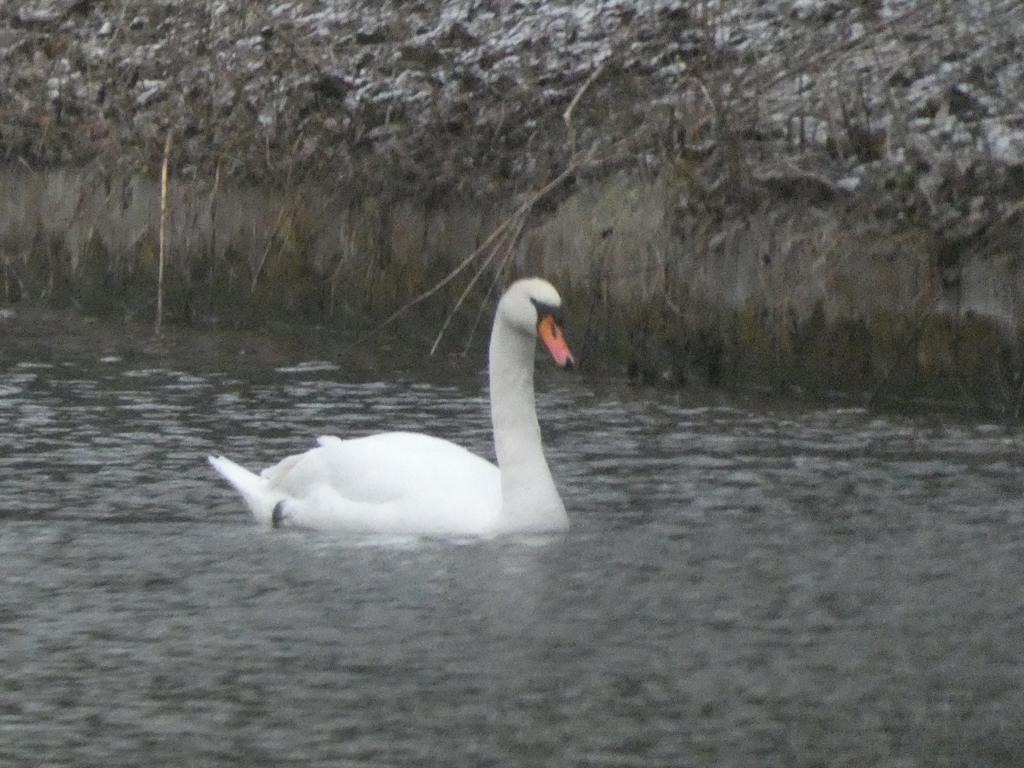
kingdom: Animalia
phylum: Chordata
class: Aves
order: Anseriformes
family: Anatidae
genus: Cygnus
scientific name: Cygnus olor
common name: Knopsvane
